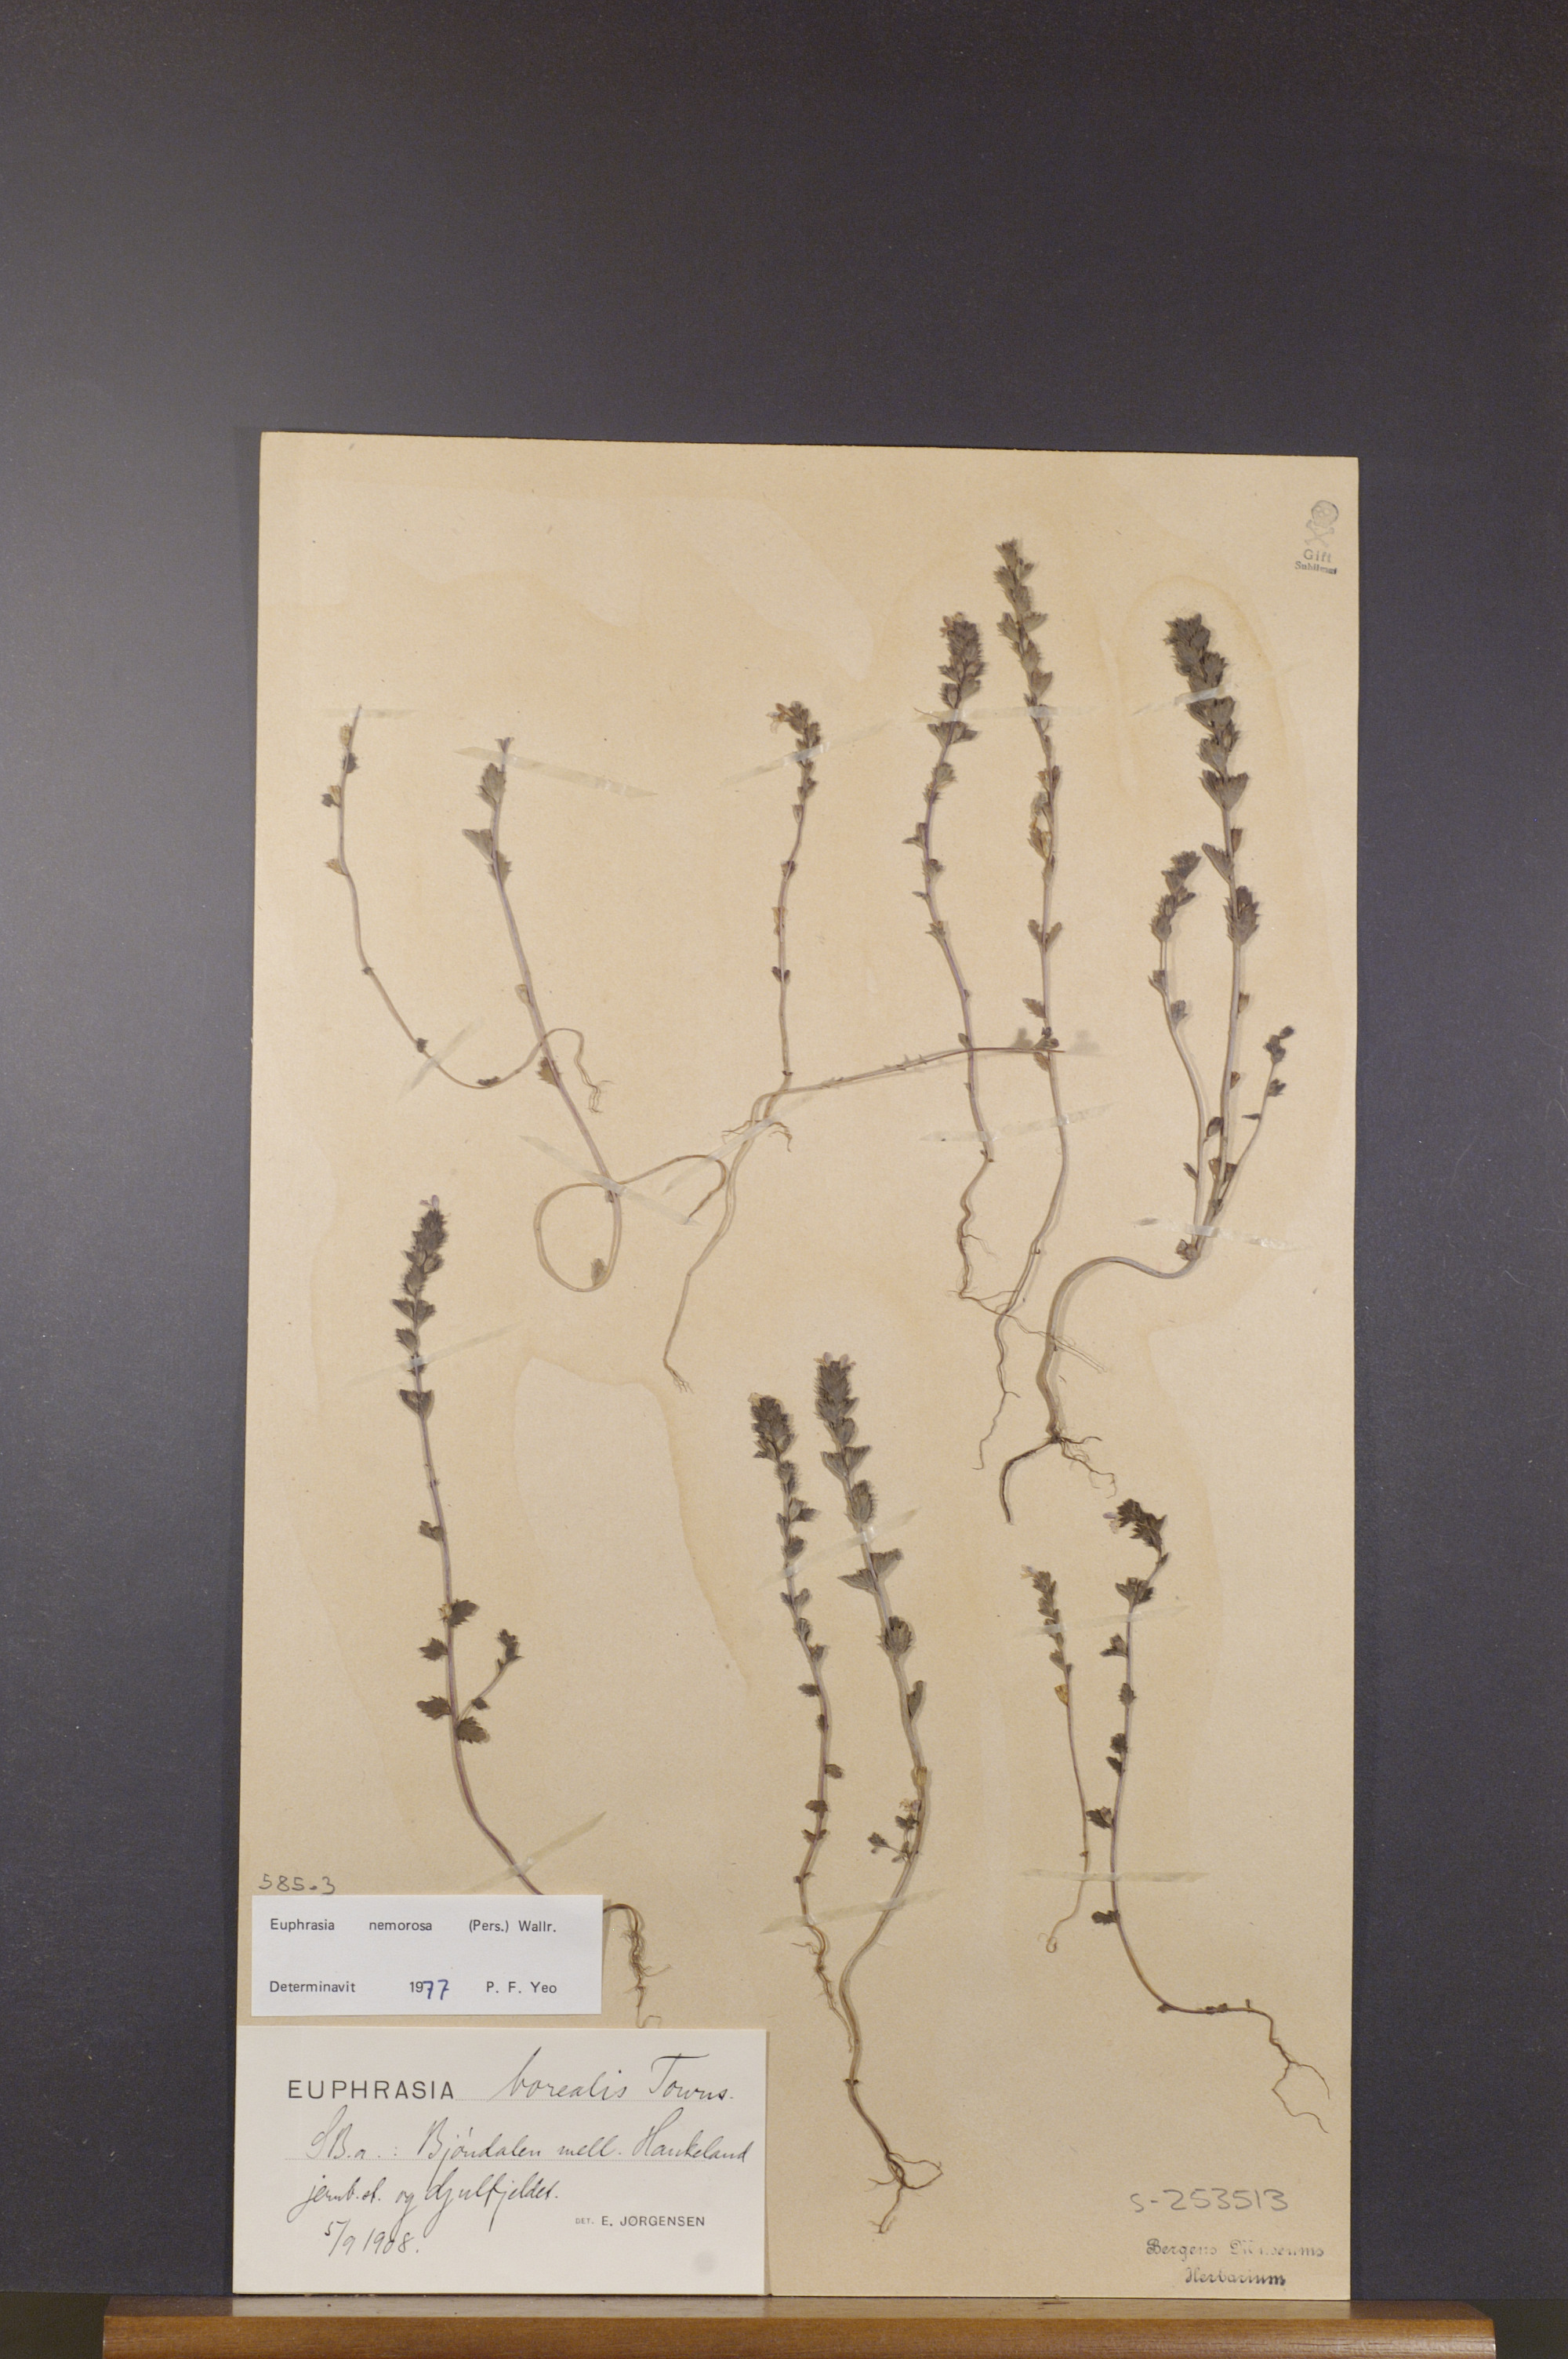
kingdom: Plantae
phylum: Tracheophyta
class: Magnoliopsida
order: Lamiales
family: Orobanchaceae
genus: Euphrasia
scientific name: Euphrasia nemorosa
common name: Common eyebright
